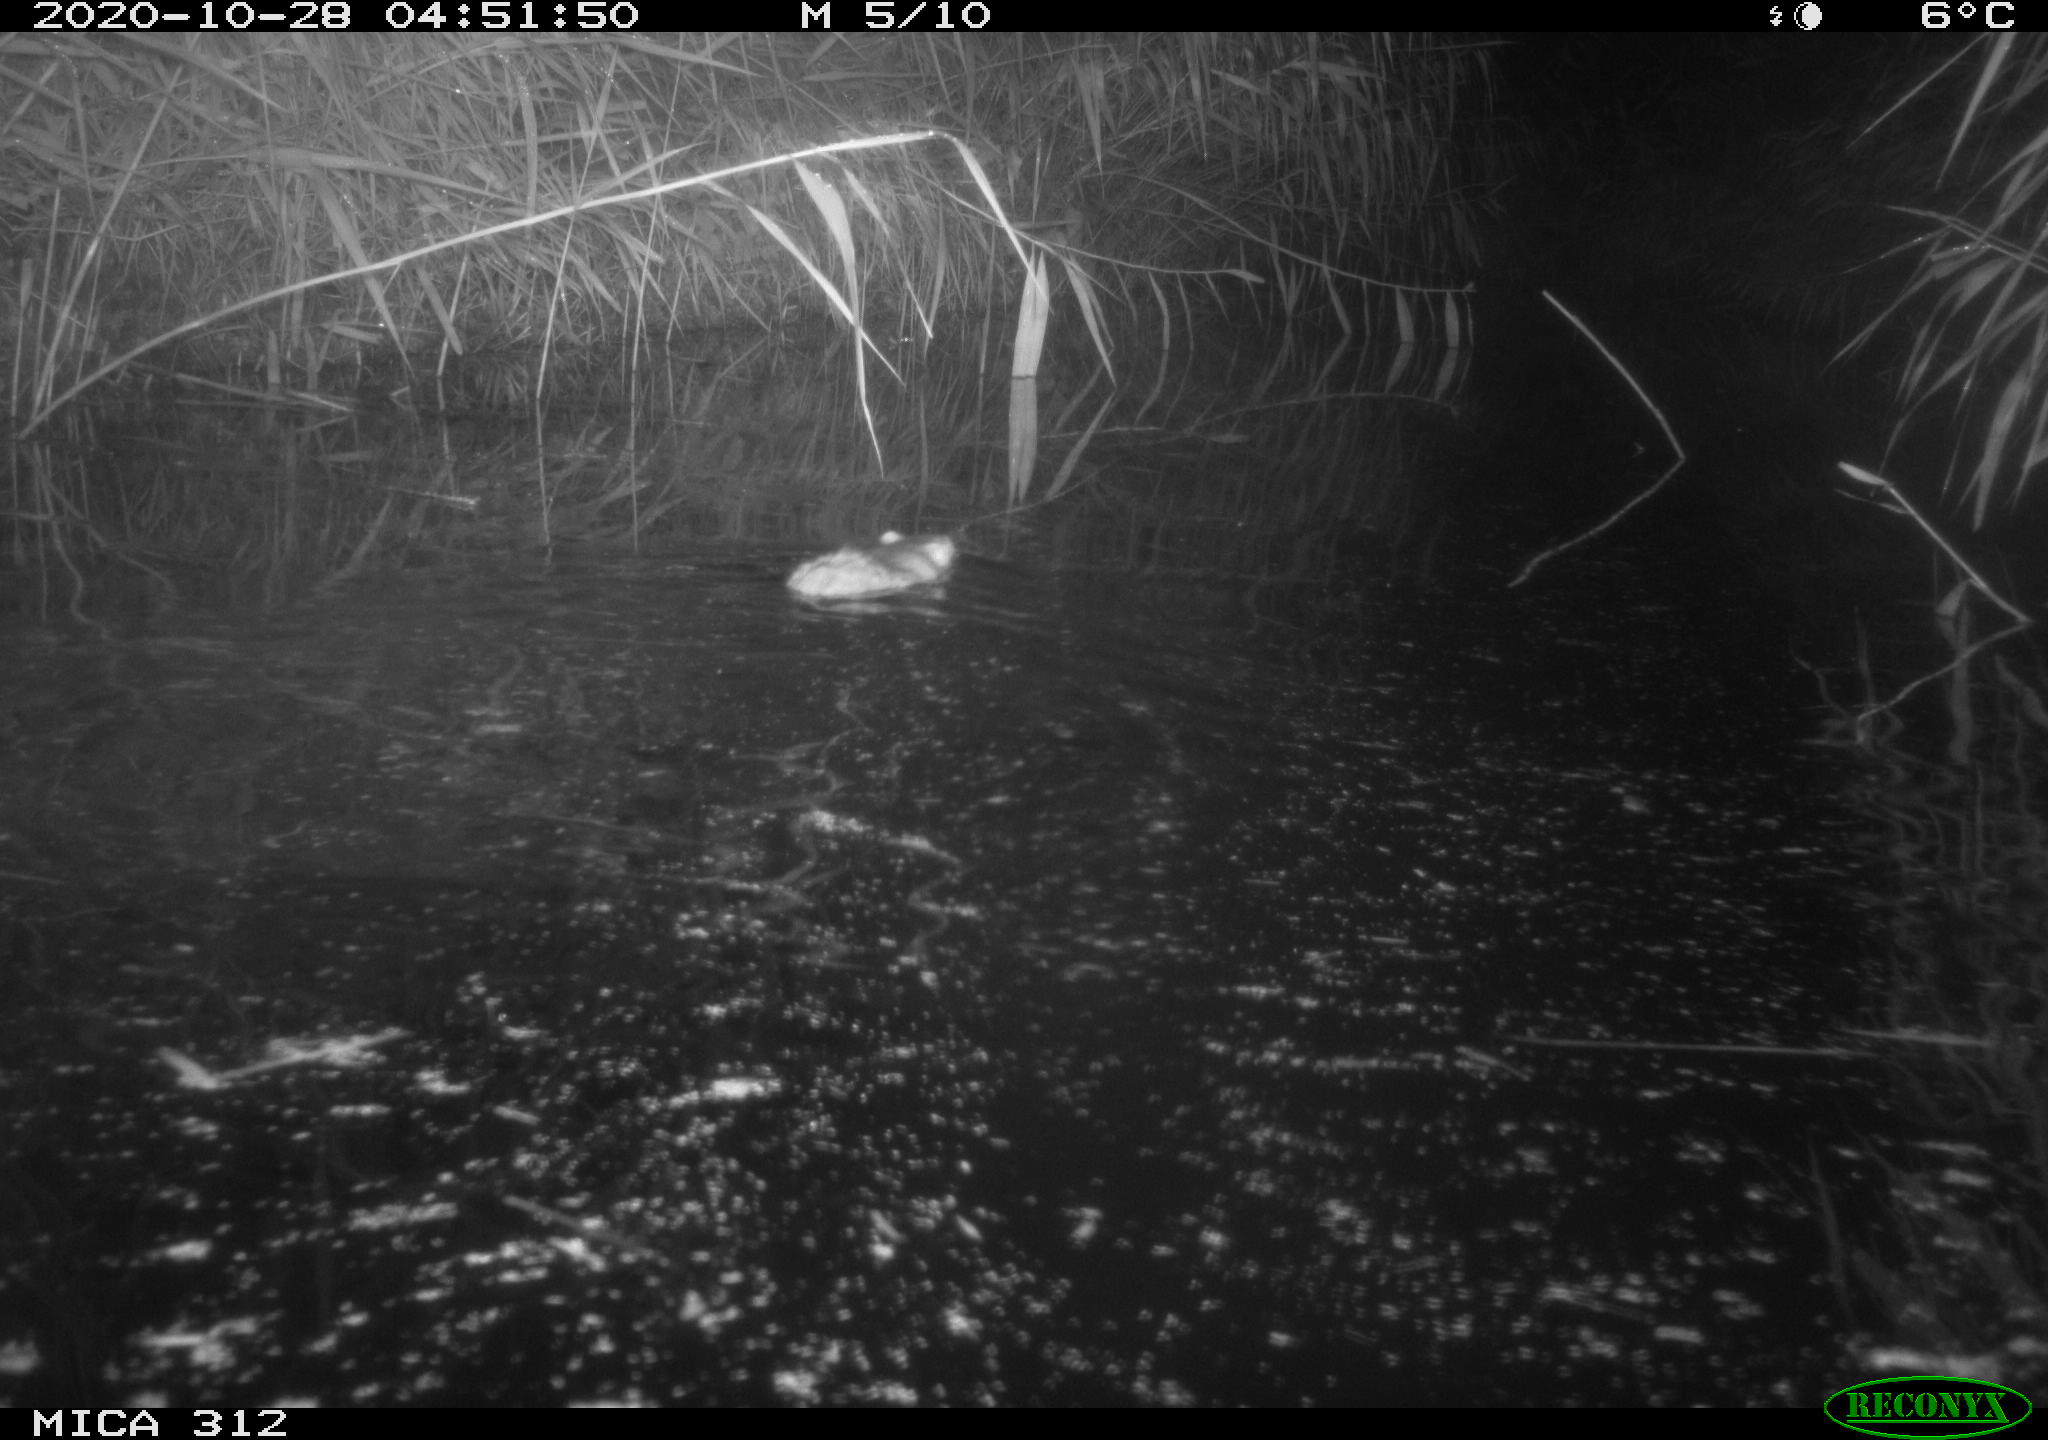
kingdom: Animalia
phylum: Chordata
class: Mammalia
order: Rodentia
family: Muridae
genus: Rattus
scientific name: Rattus norvegicus
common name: Brown rat
